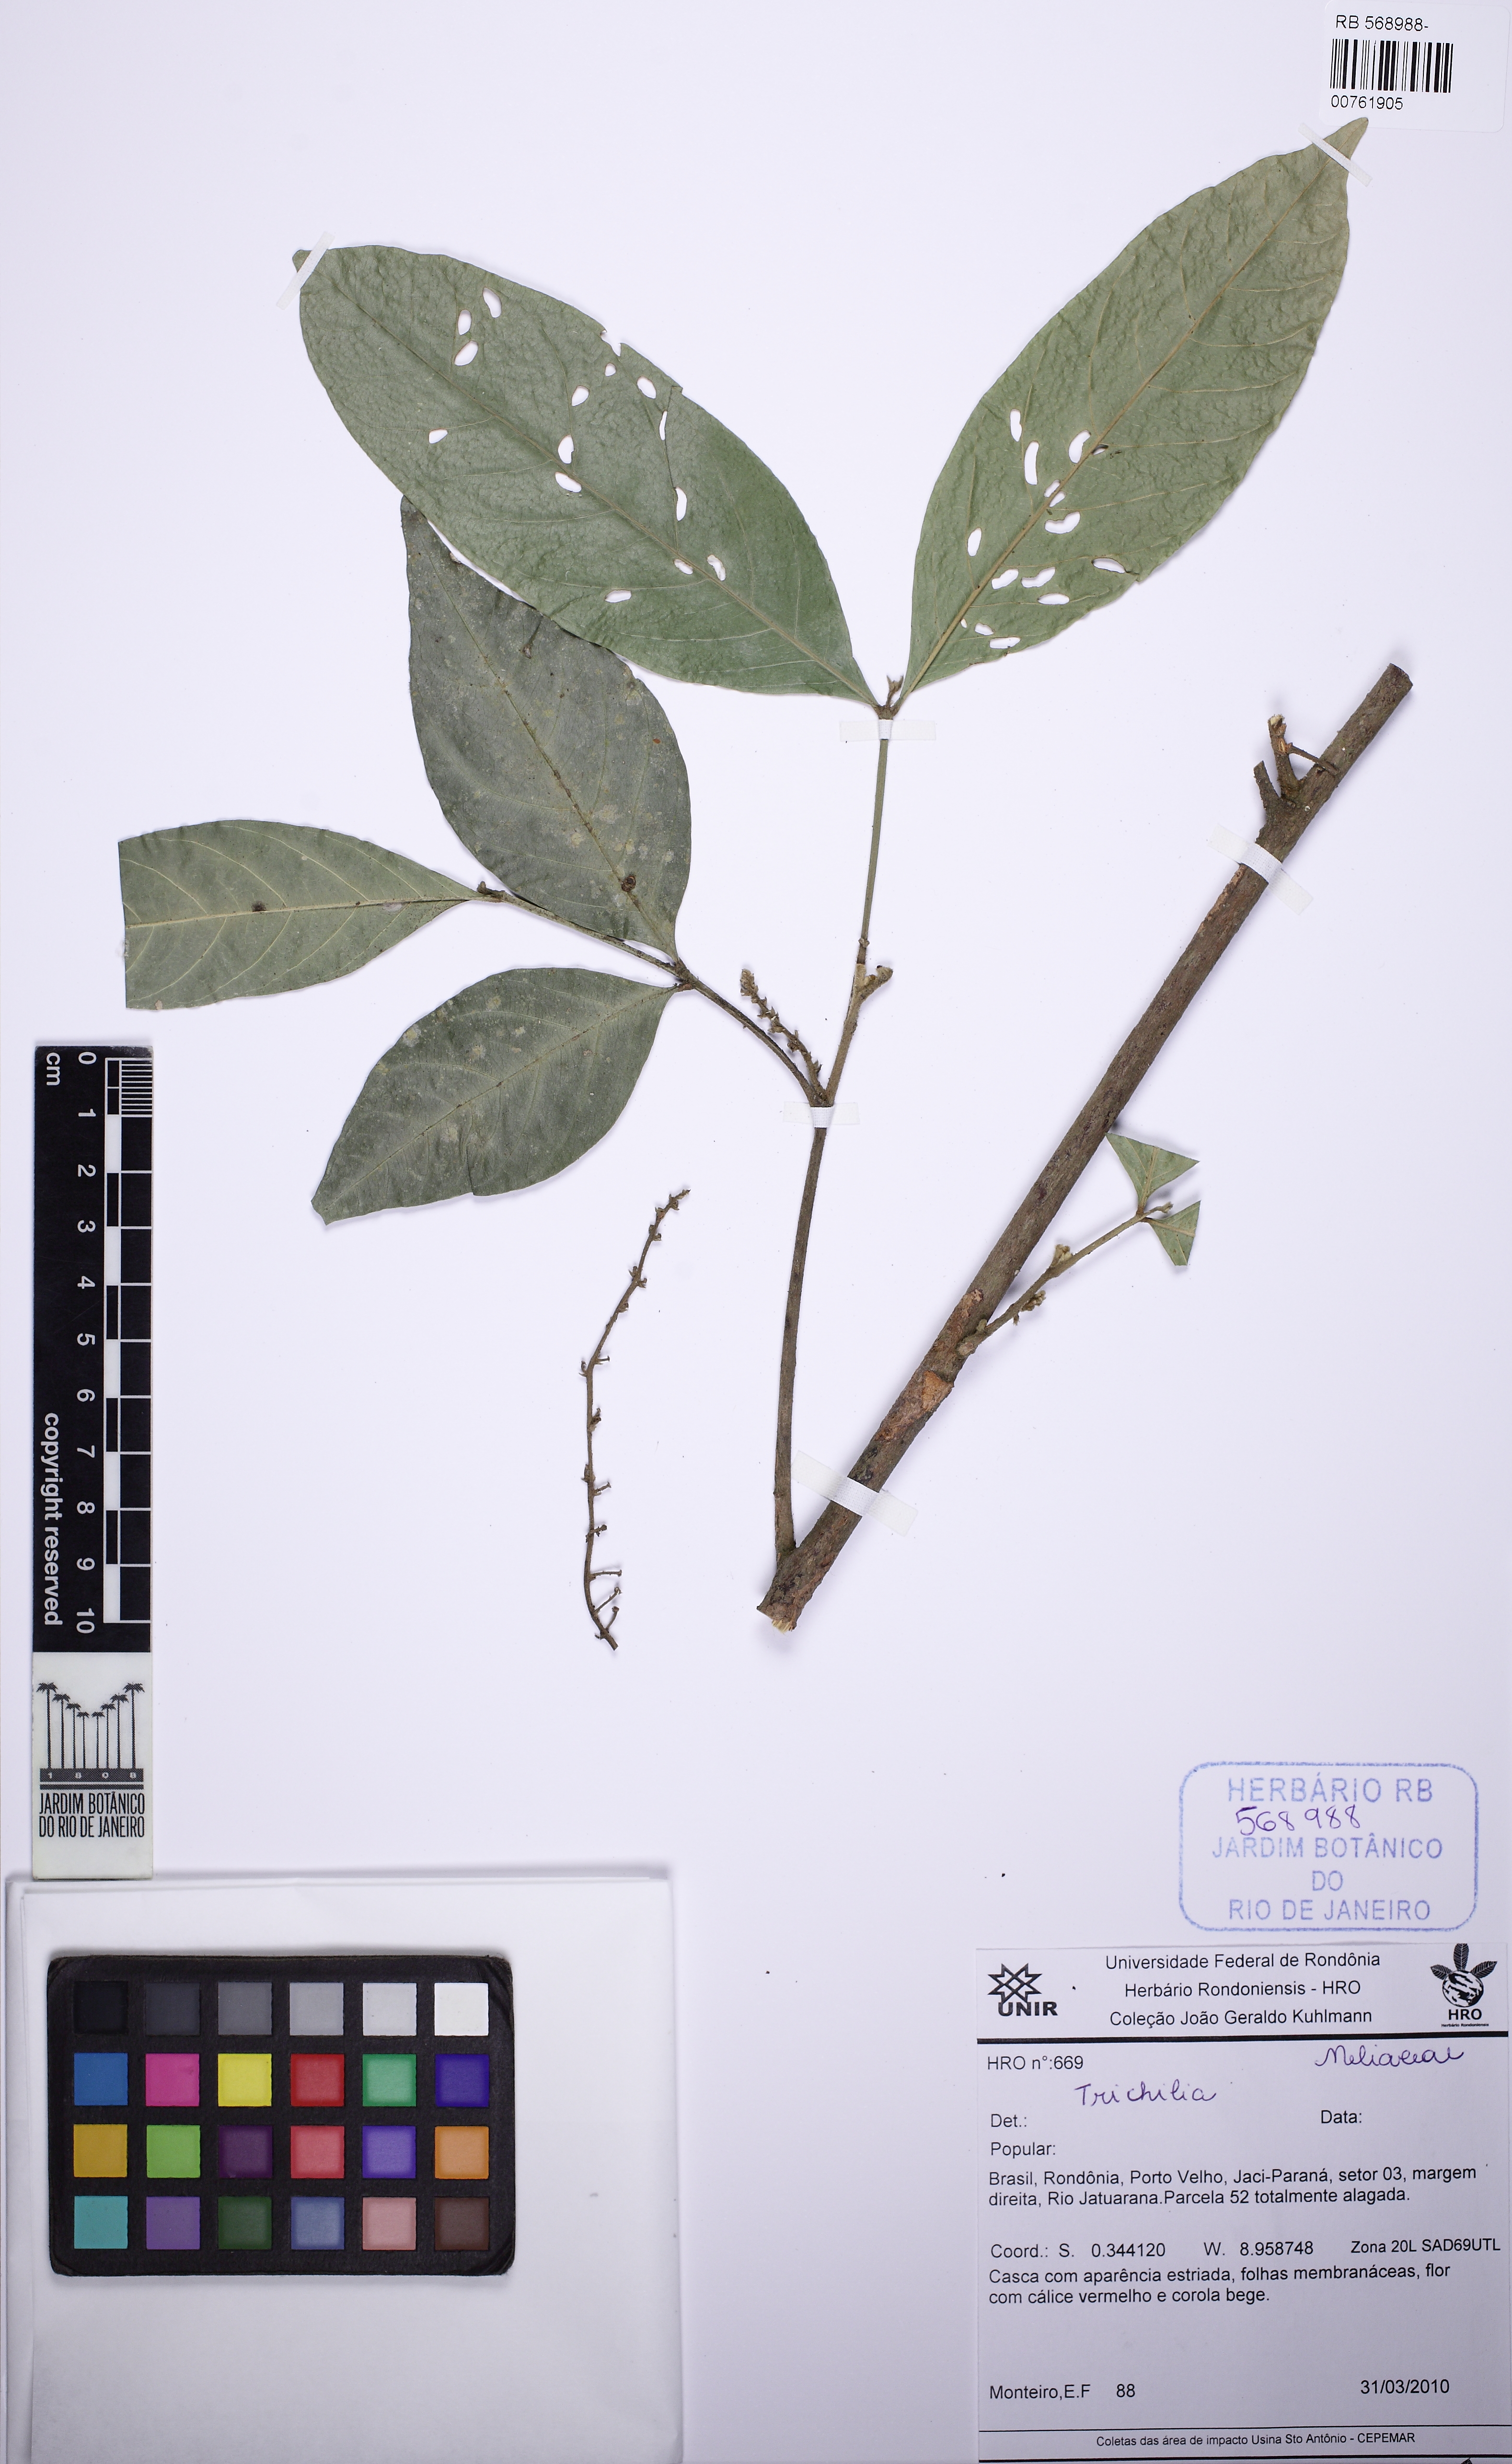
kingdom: Plantae
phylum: Tracheophyta
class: Magnoliopsida
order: Sapindales
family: Meliaceae
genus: Guarea
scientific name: Guarea
